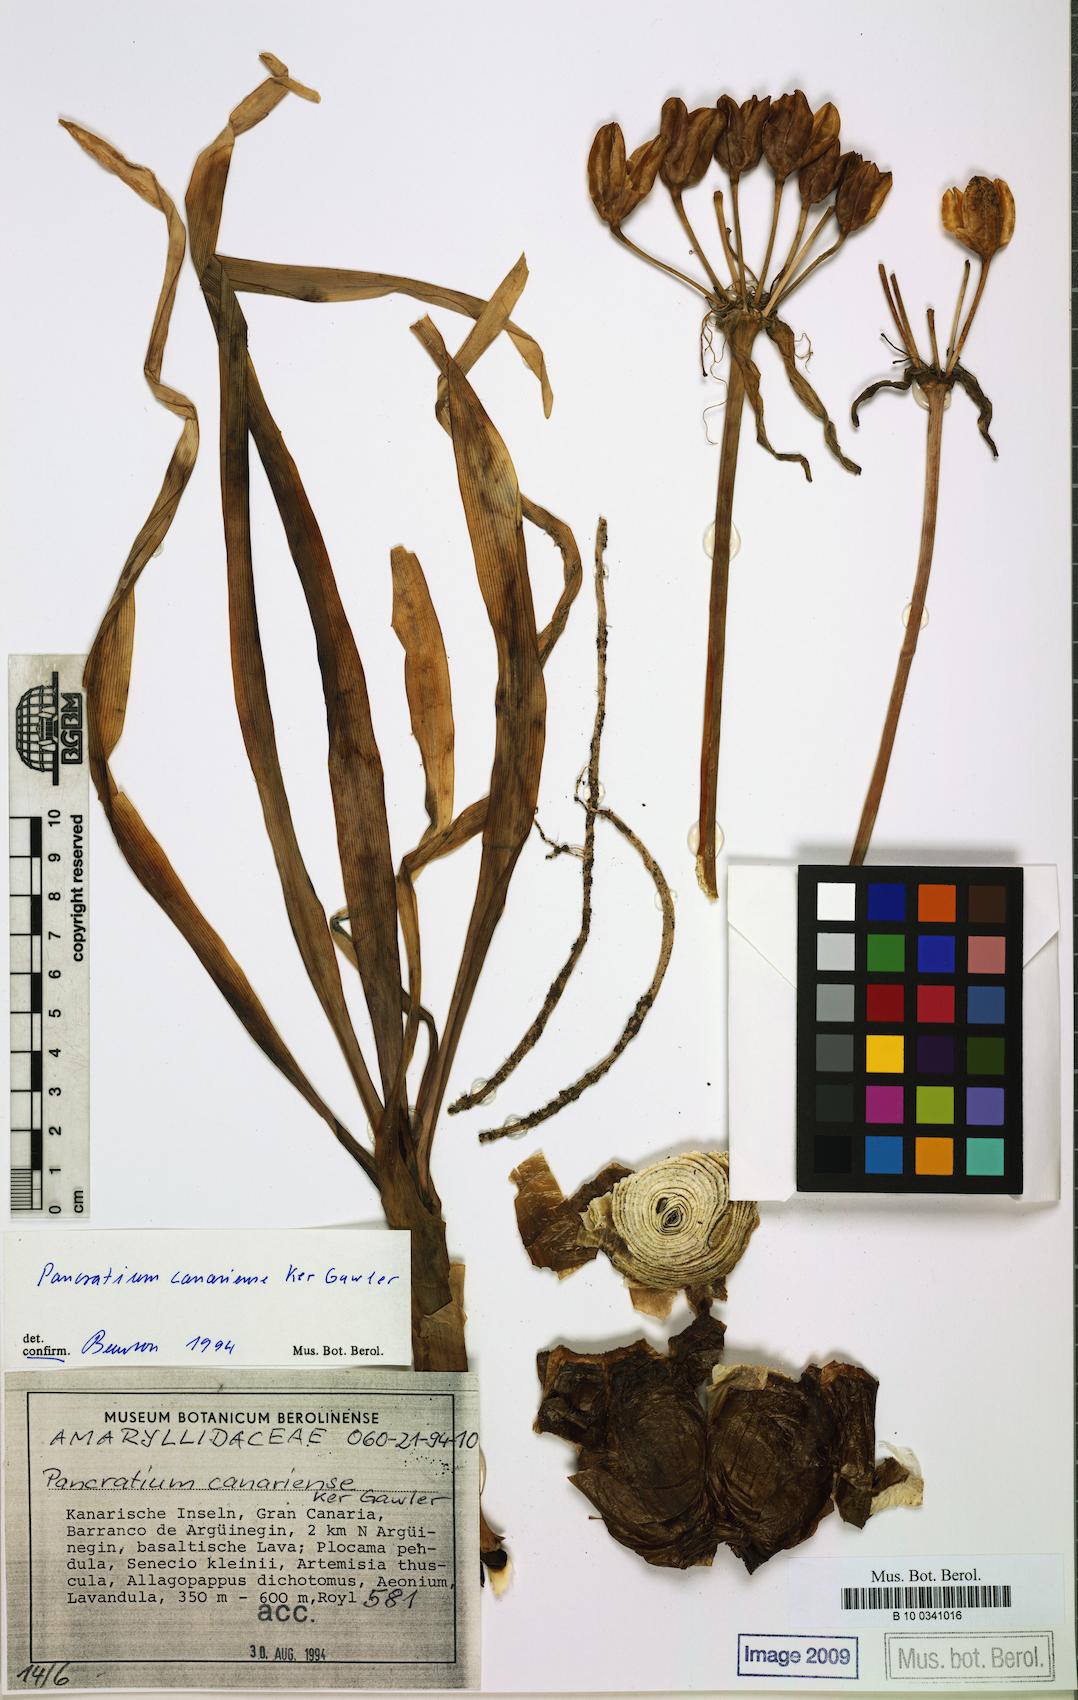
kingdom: Plantae
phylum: Tracheophyta
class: Liliopsida
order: Asparagales
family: Amaryllidaceae
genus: Pancratium
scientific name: Pancratium canariense
